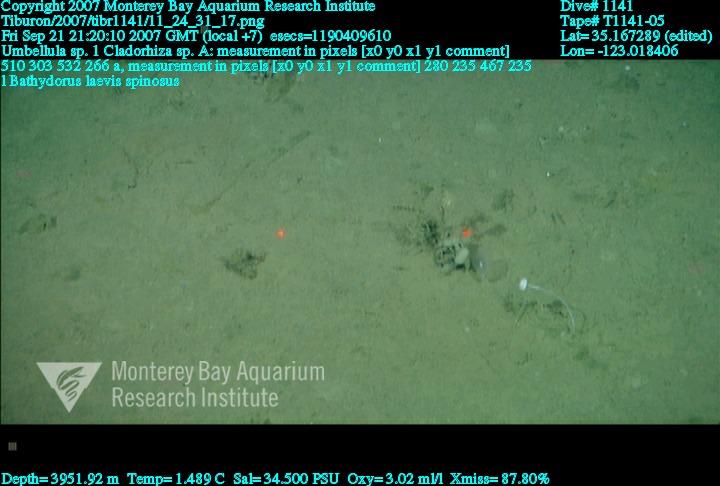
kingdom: Animalia
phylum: Porifera
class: Demospongiae
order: Poecilosclerida
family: Cladorhizidae
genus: Cladorhiza
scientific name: Cladorhiza
